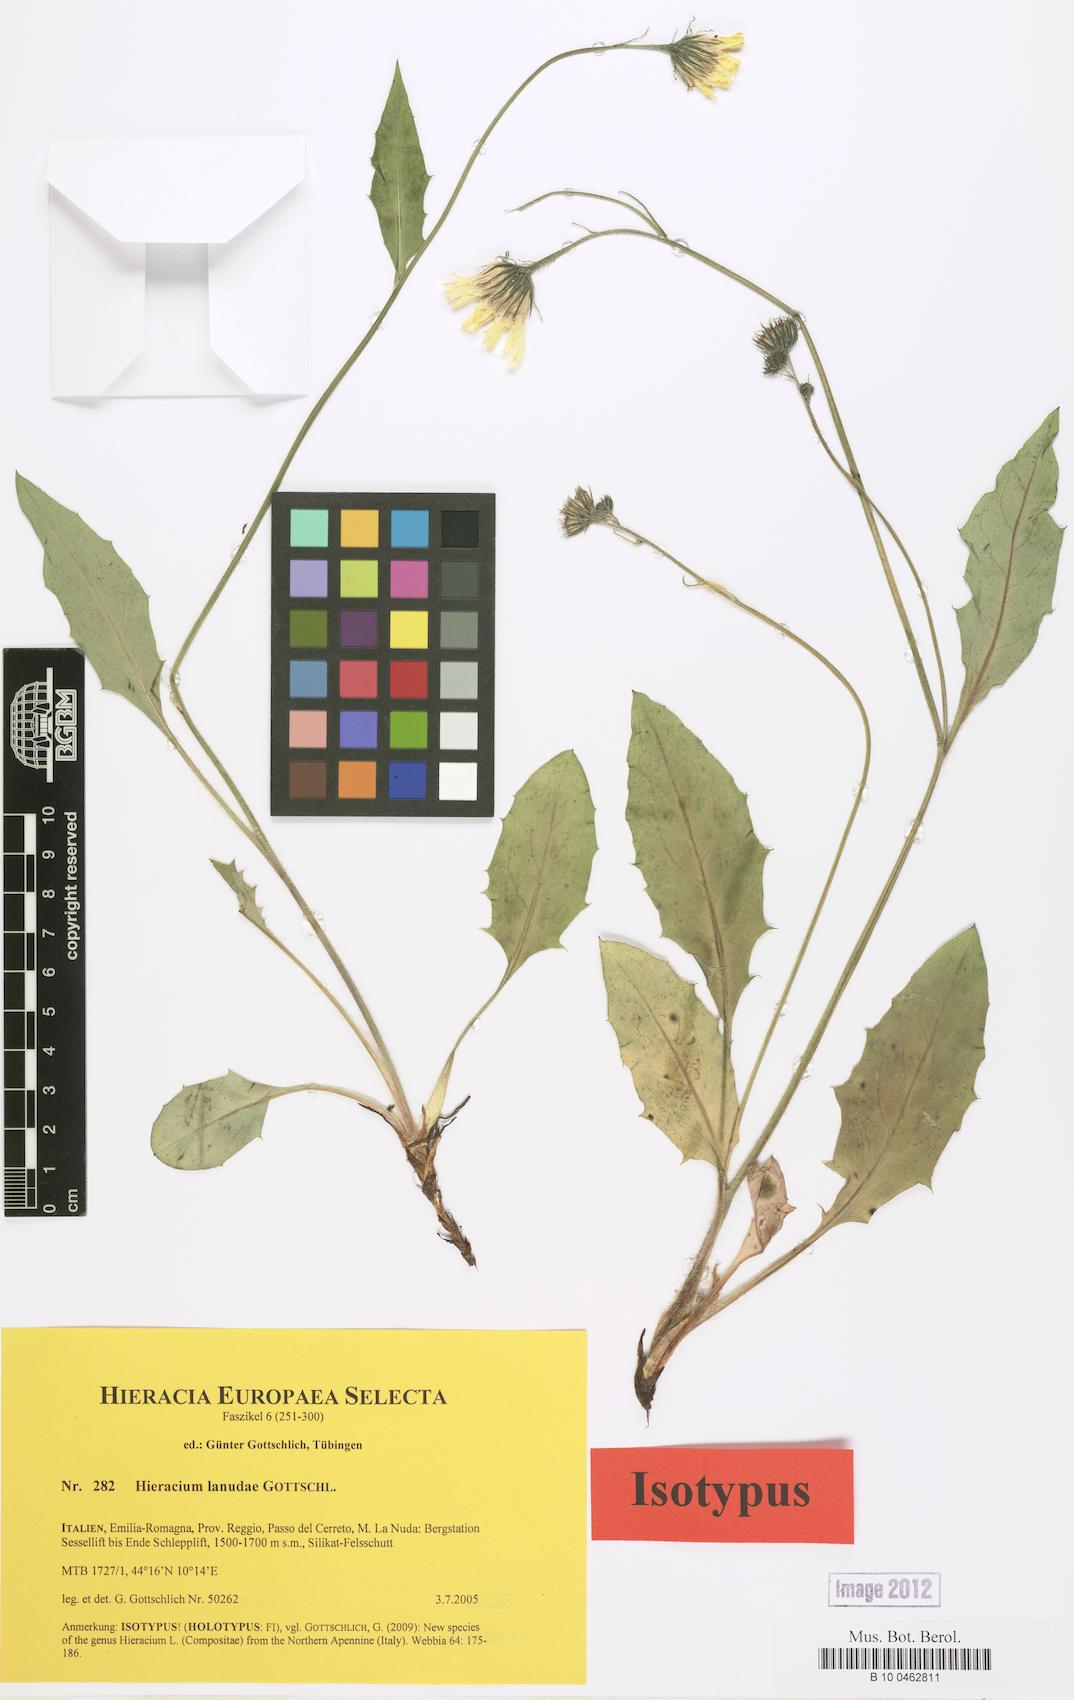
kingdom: Plantae
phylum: Tracheophyta
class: Magnoliopsida
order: Asterales
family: Asteraceae
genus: Hieracium
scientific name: Hieracium pallidum
